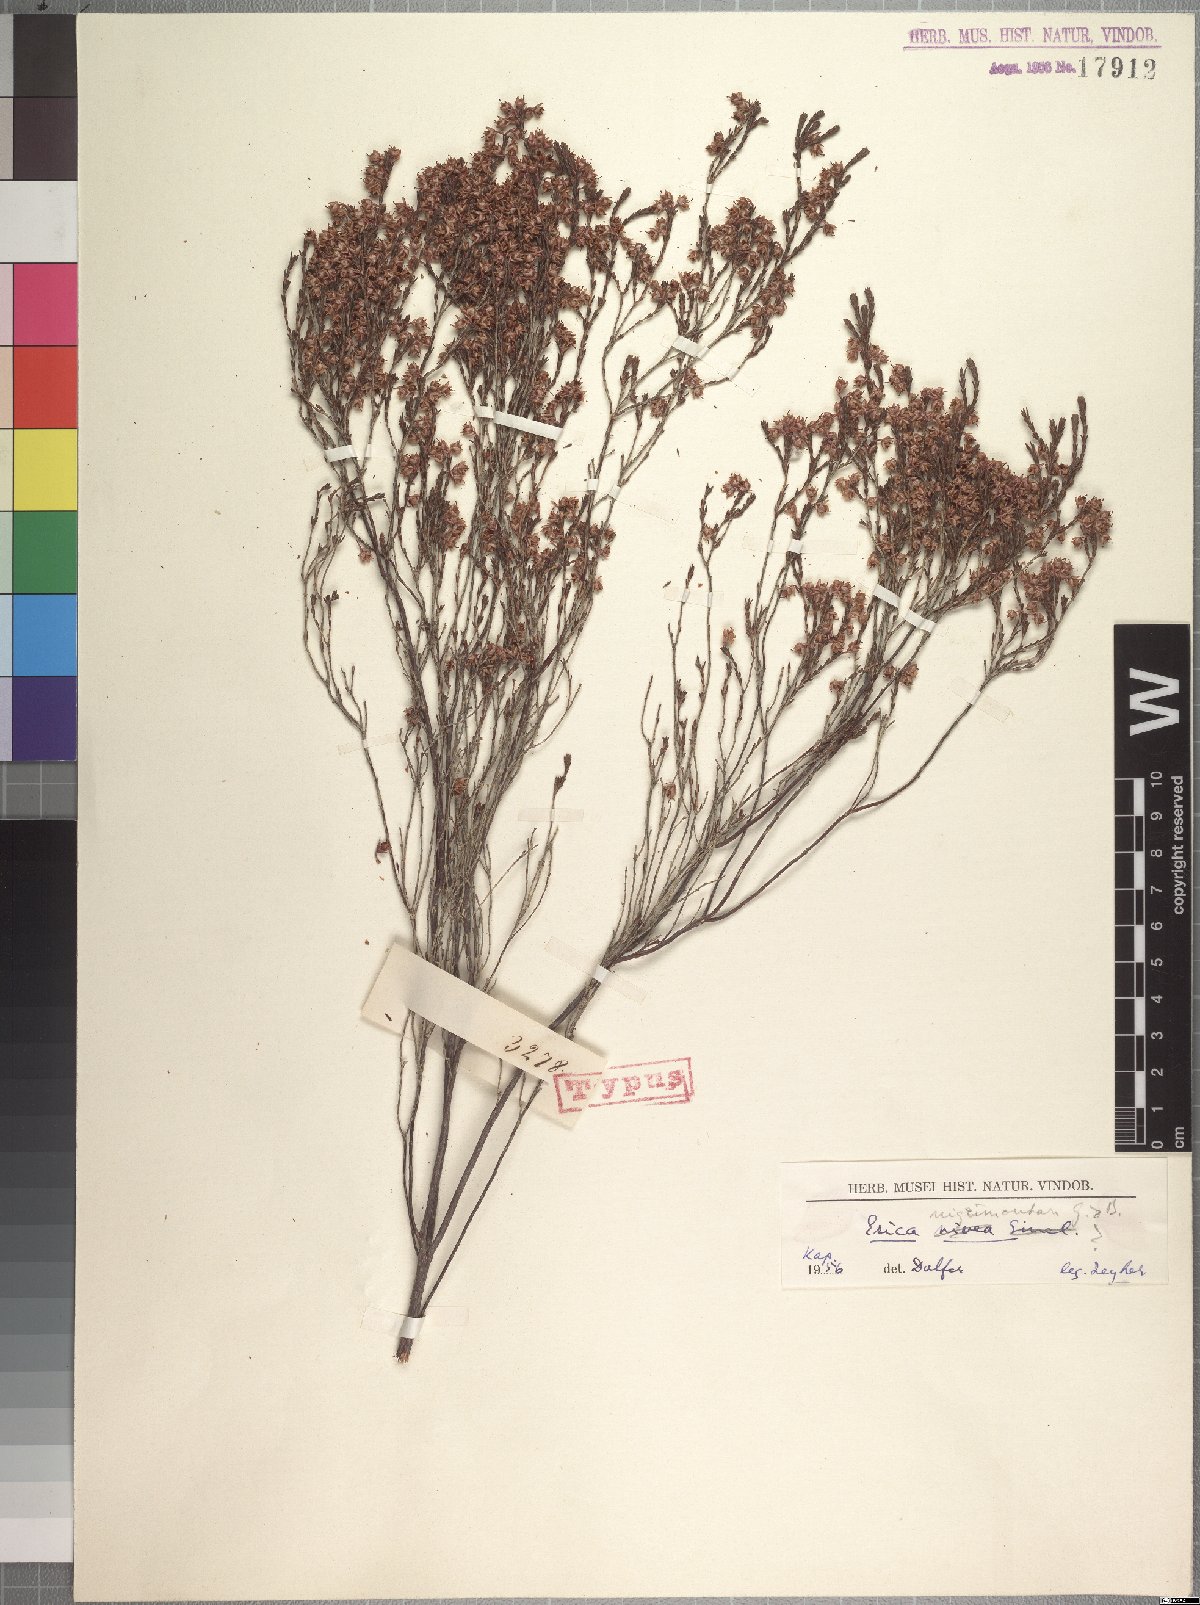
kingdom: Plantae
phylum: Tracheophyta
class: Magnoliopsida
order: Ericales
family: Ericaceae
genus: Erica
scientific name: Erica nigrimontana
